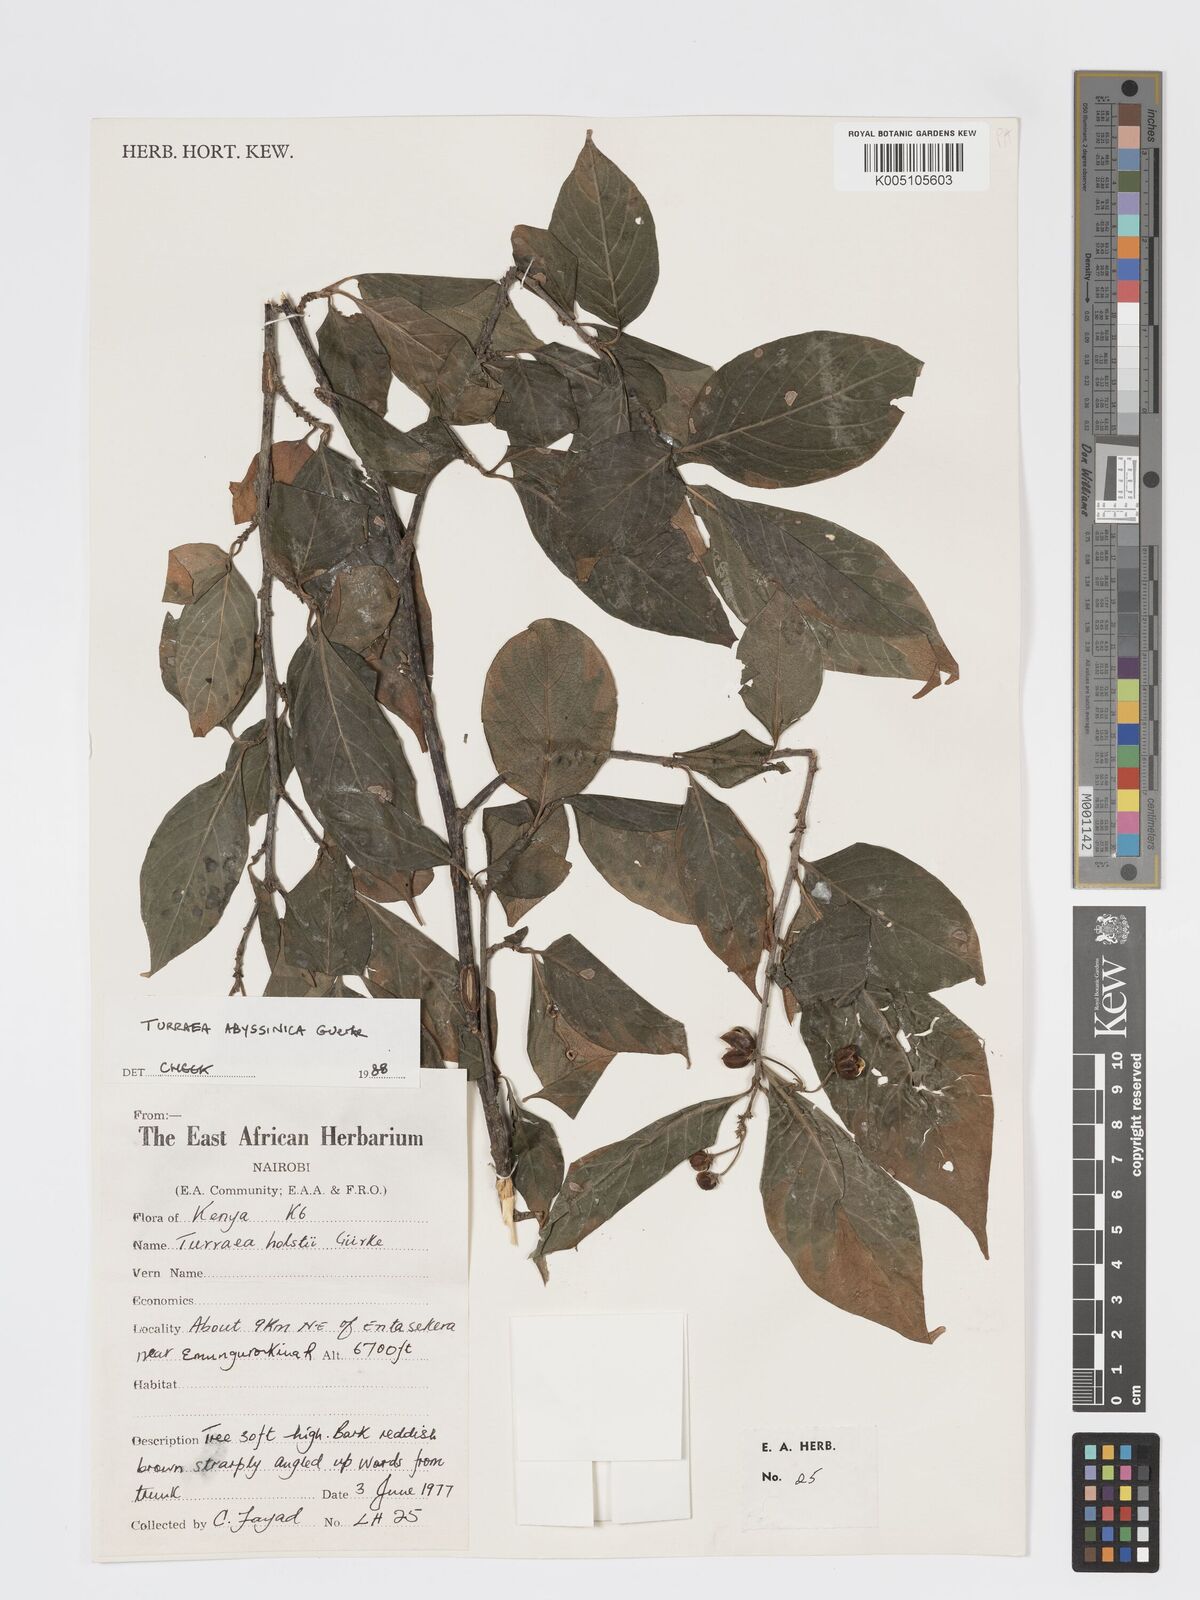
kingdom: Plantae
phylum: Tracheophyta
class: Magnoliopsida
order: Sapindales
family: Meliaceae
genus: Turraea
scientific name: Turraea abyssinica
